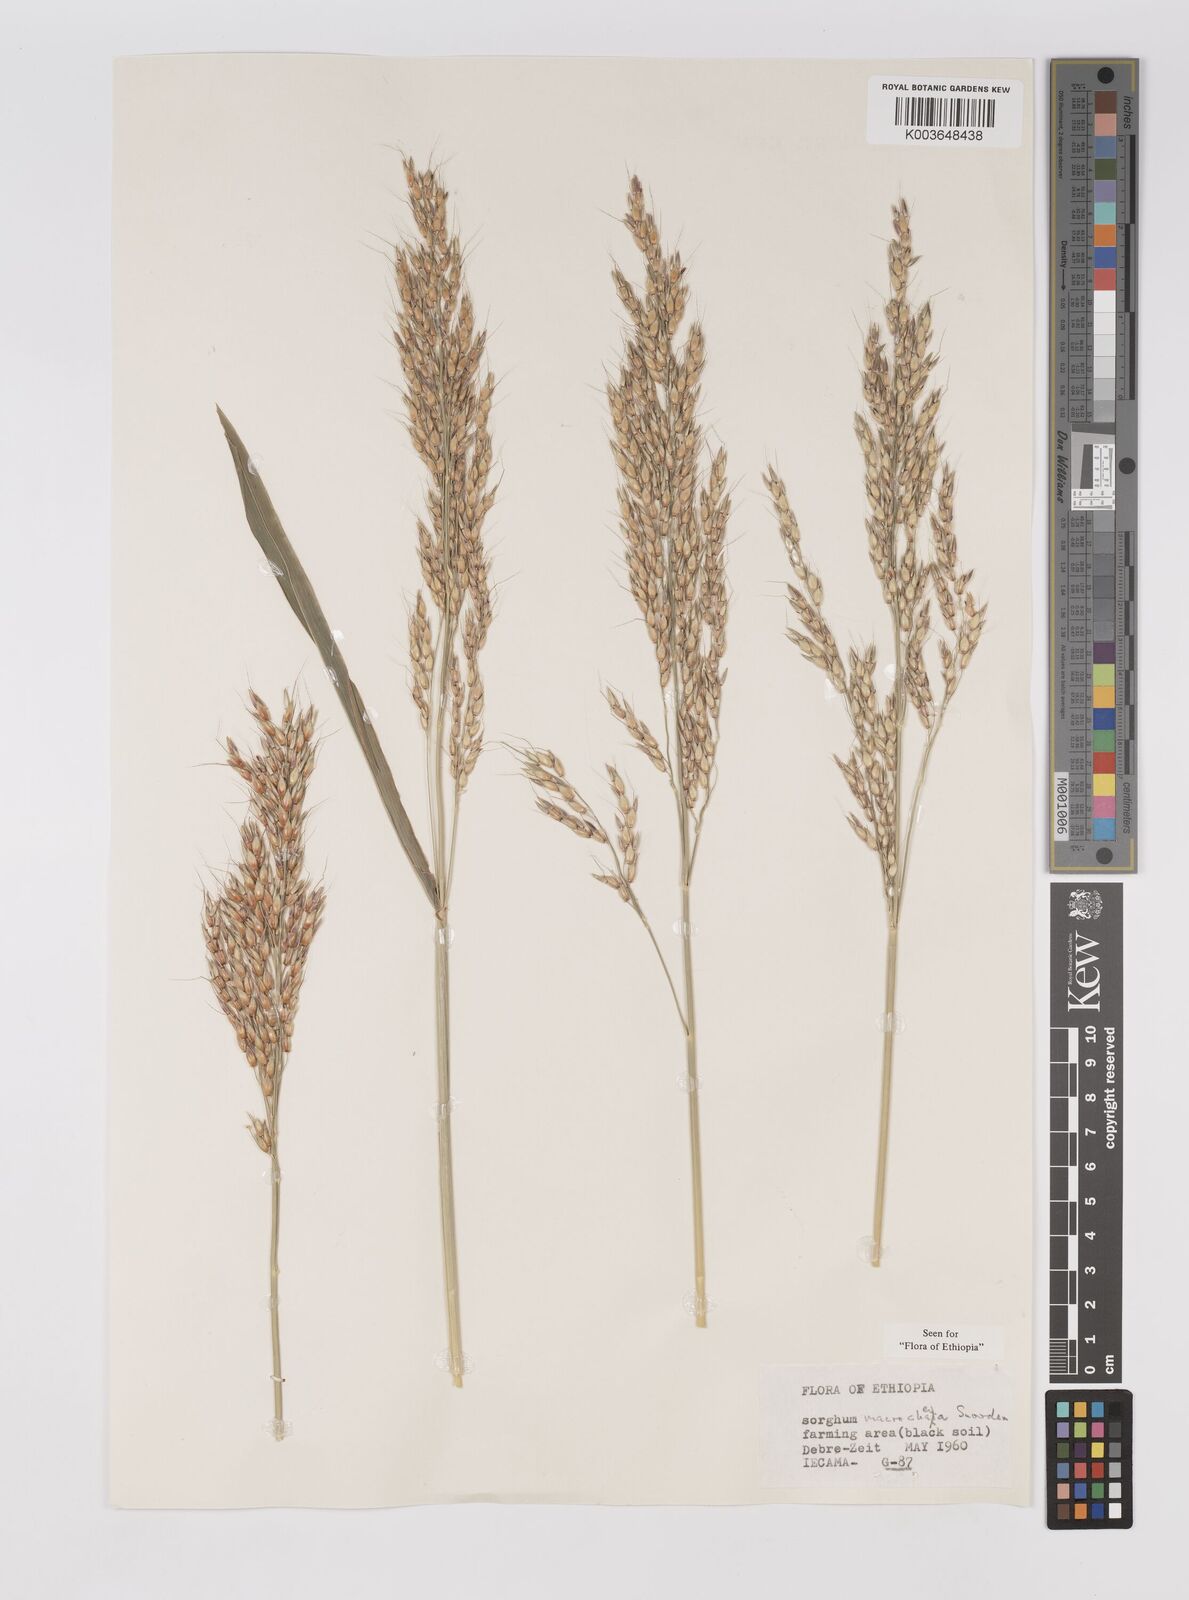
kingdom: Plantae
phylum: Tracheophyta
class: Liliopsida
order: Poales
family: Poaceae
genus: Sorghum
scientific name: Sorghum arundinaceum
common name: Sorghum
